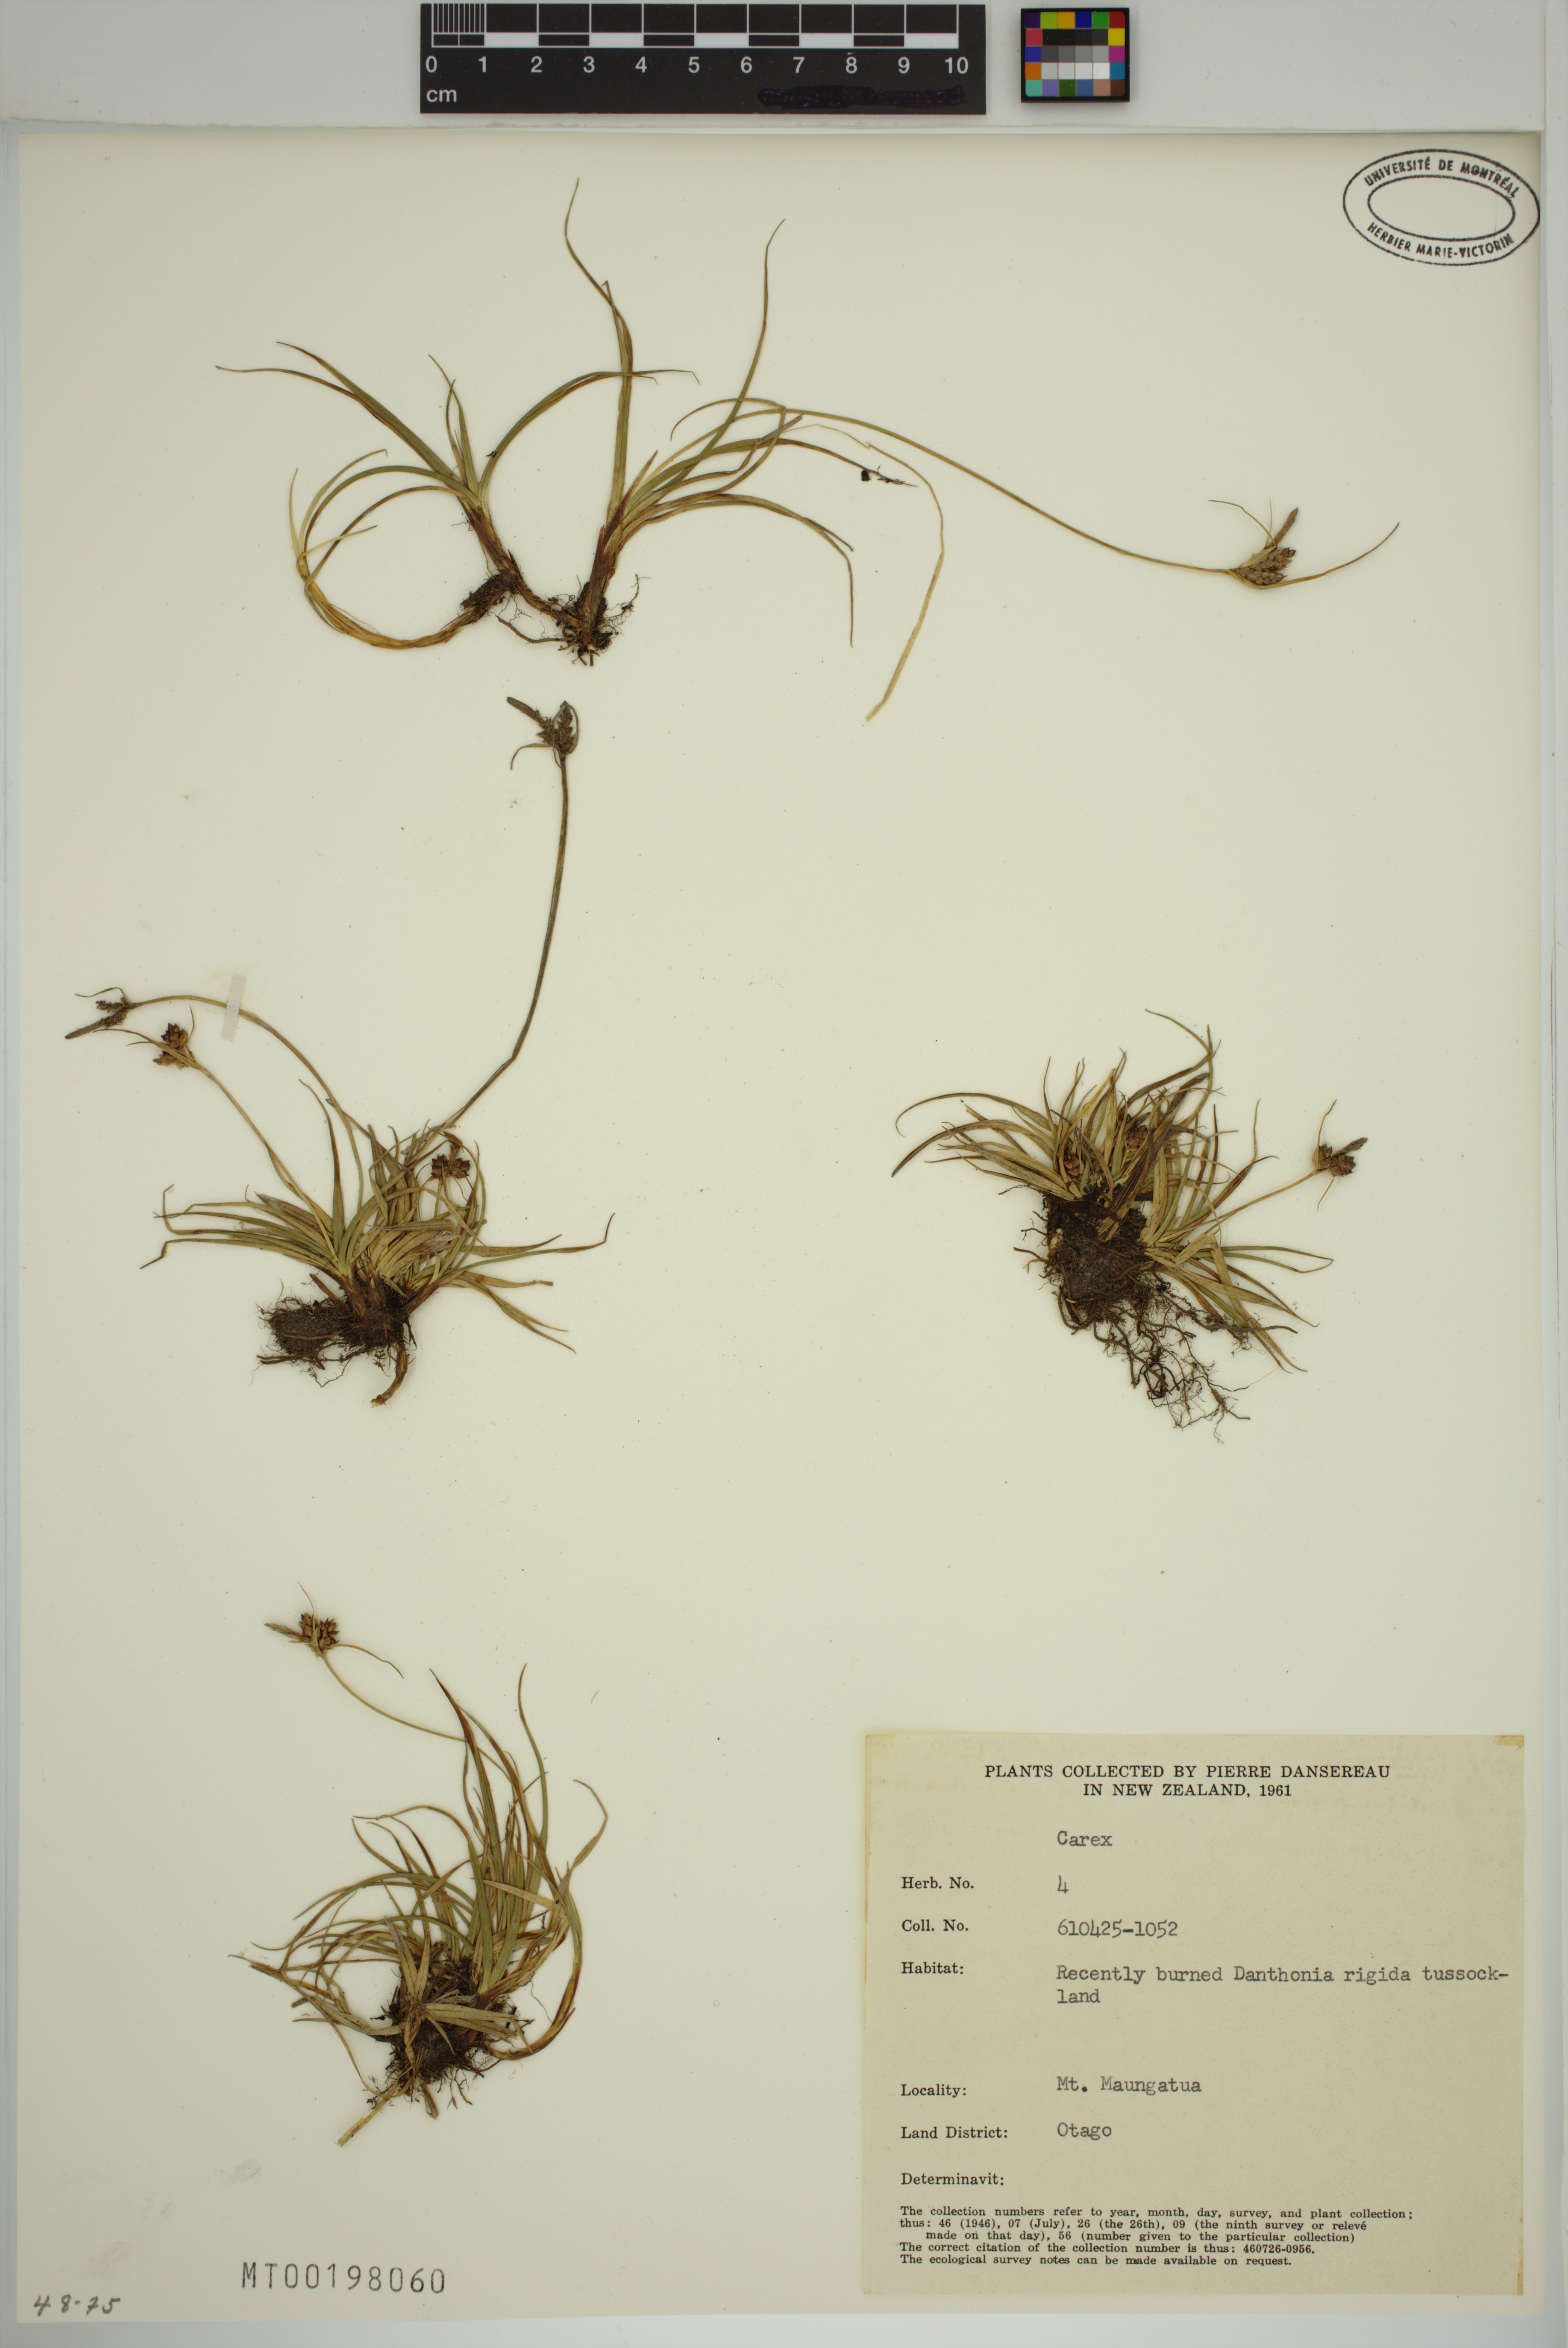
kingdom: Plantae
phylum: Tracheophyta
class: Liliopsida
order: Poales
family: Cyperaceae
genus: Carex
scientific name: Carex
